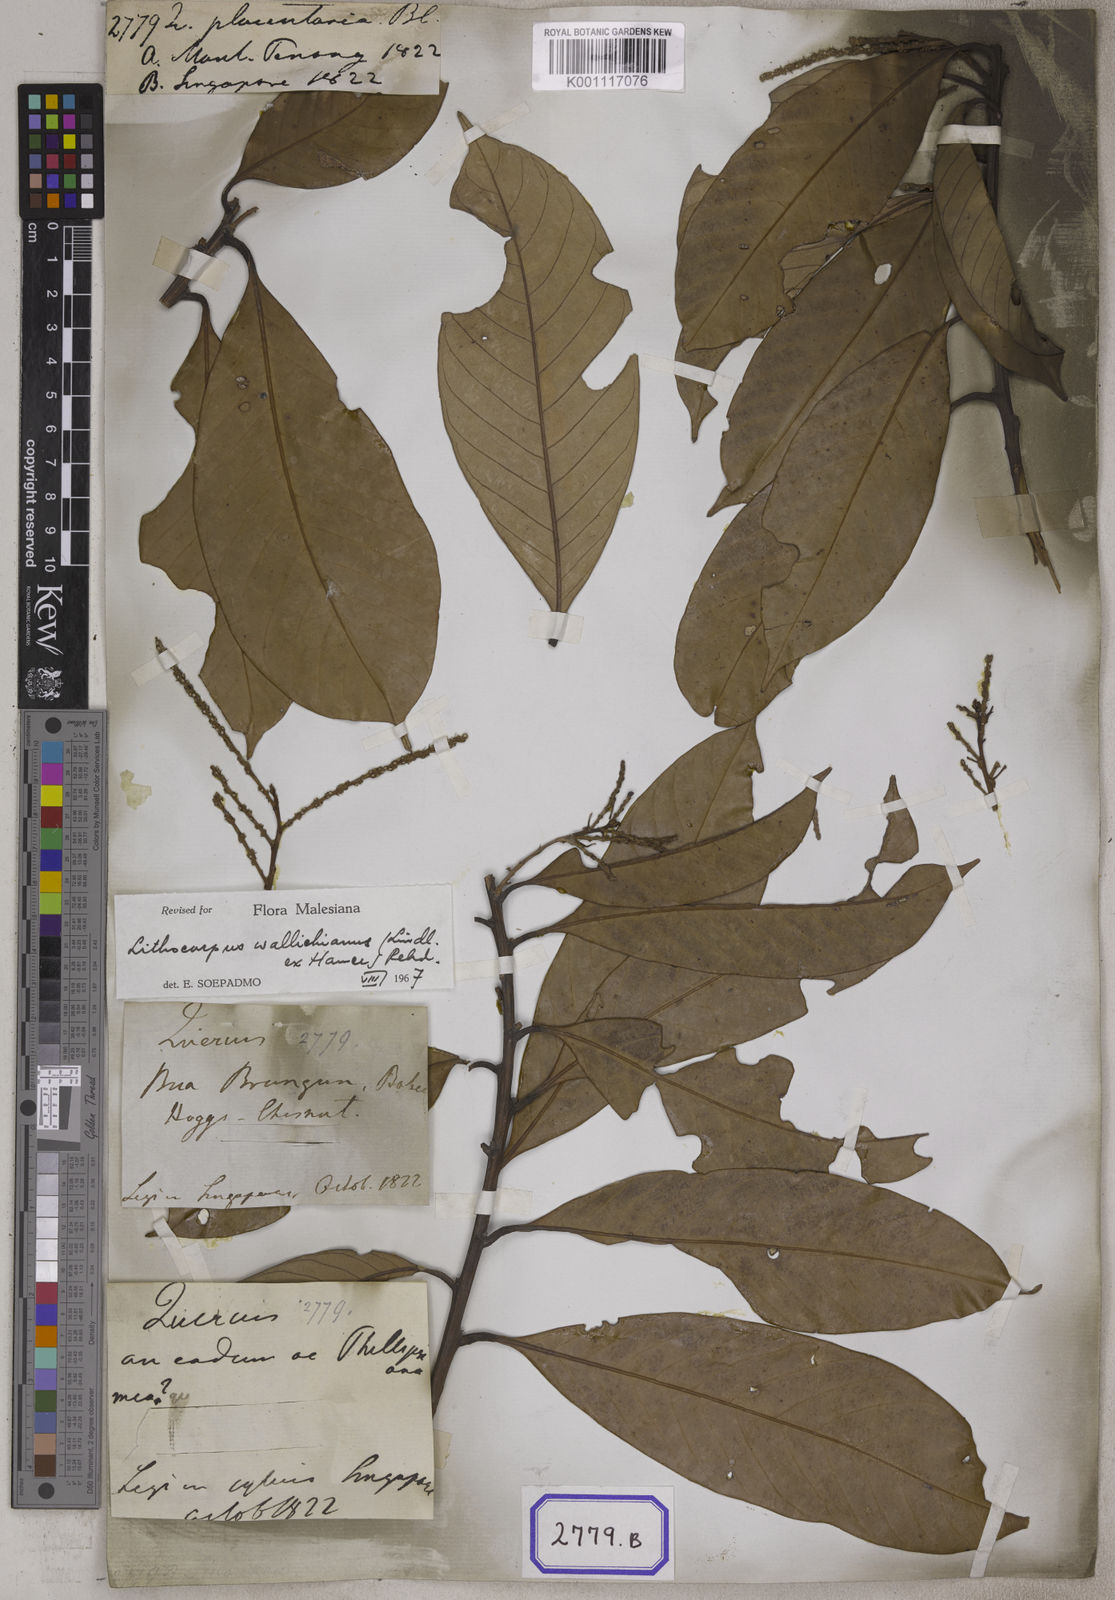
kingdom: Plantae
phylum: Tracheophyta
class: Magnoliopsida
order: Fagales
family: Fagaceae
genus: Lithocarpus
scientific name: Lithocarpus cyclophorus
